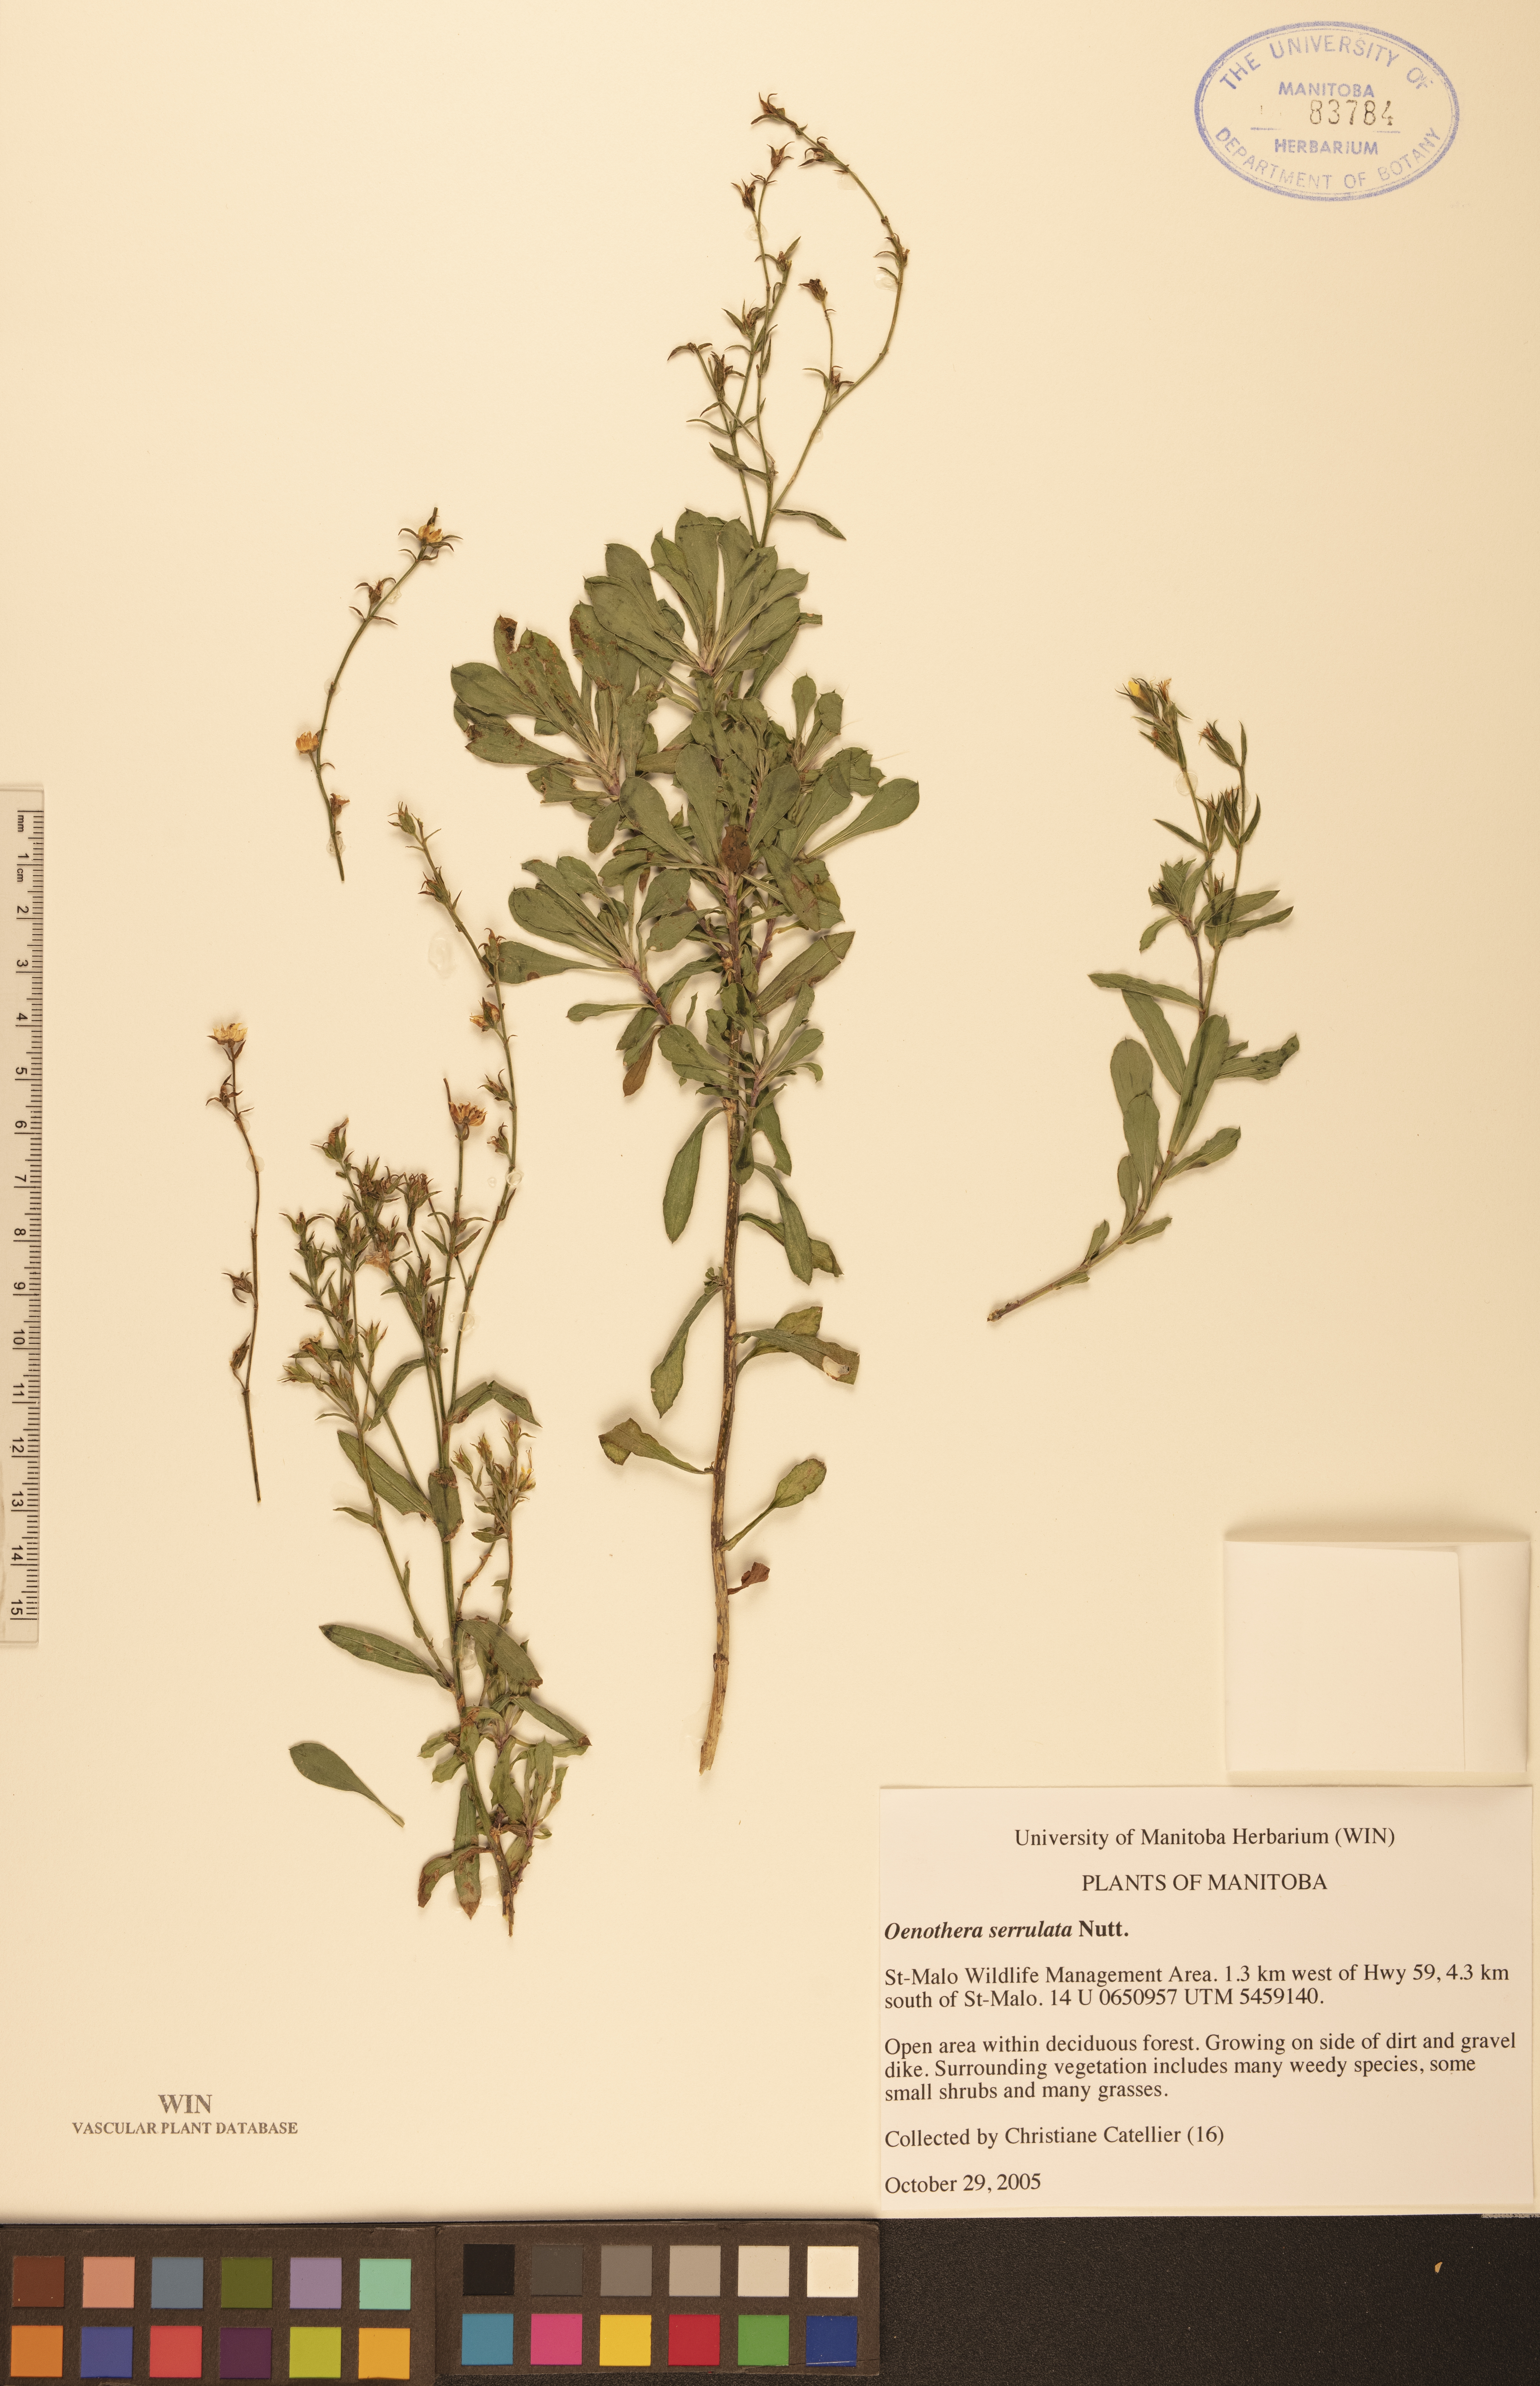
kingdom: Plantae
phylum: Tracheophyta
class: Magnoliopsida
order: Myrtales
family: Onagraceae
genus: Oenothera
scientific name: Oenothera serrulata
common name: Half-shrub calylophus
